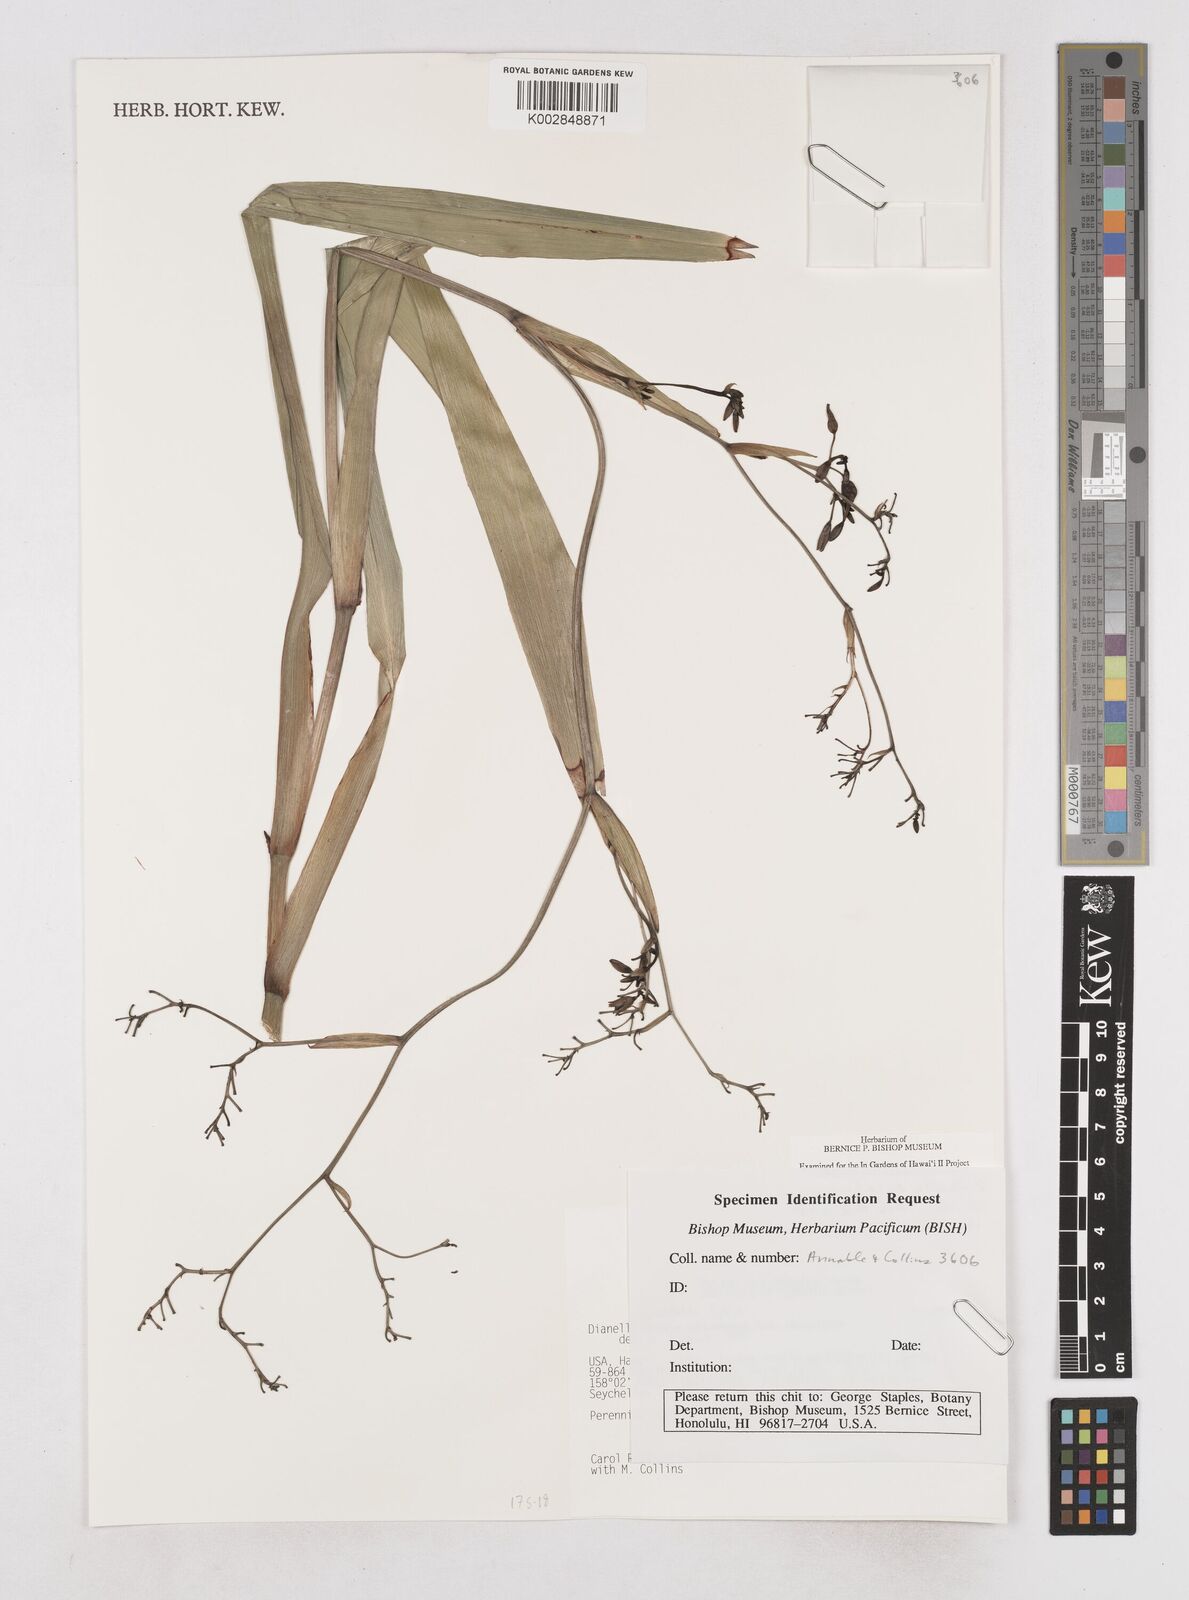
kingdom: Plantae
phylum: Tracheophyta
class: Liliopsida
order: Asparagales
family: Asphodelaceae
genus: Dianella
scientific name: Dianella sandwicensis
